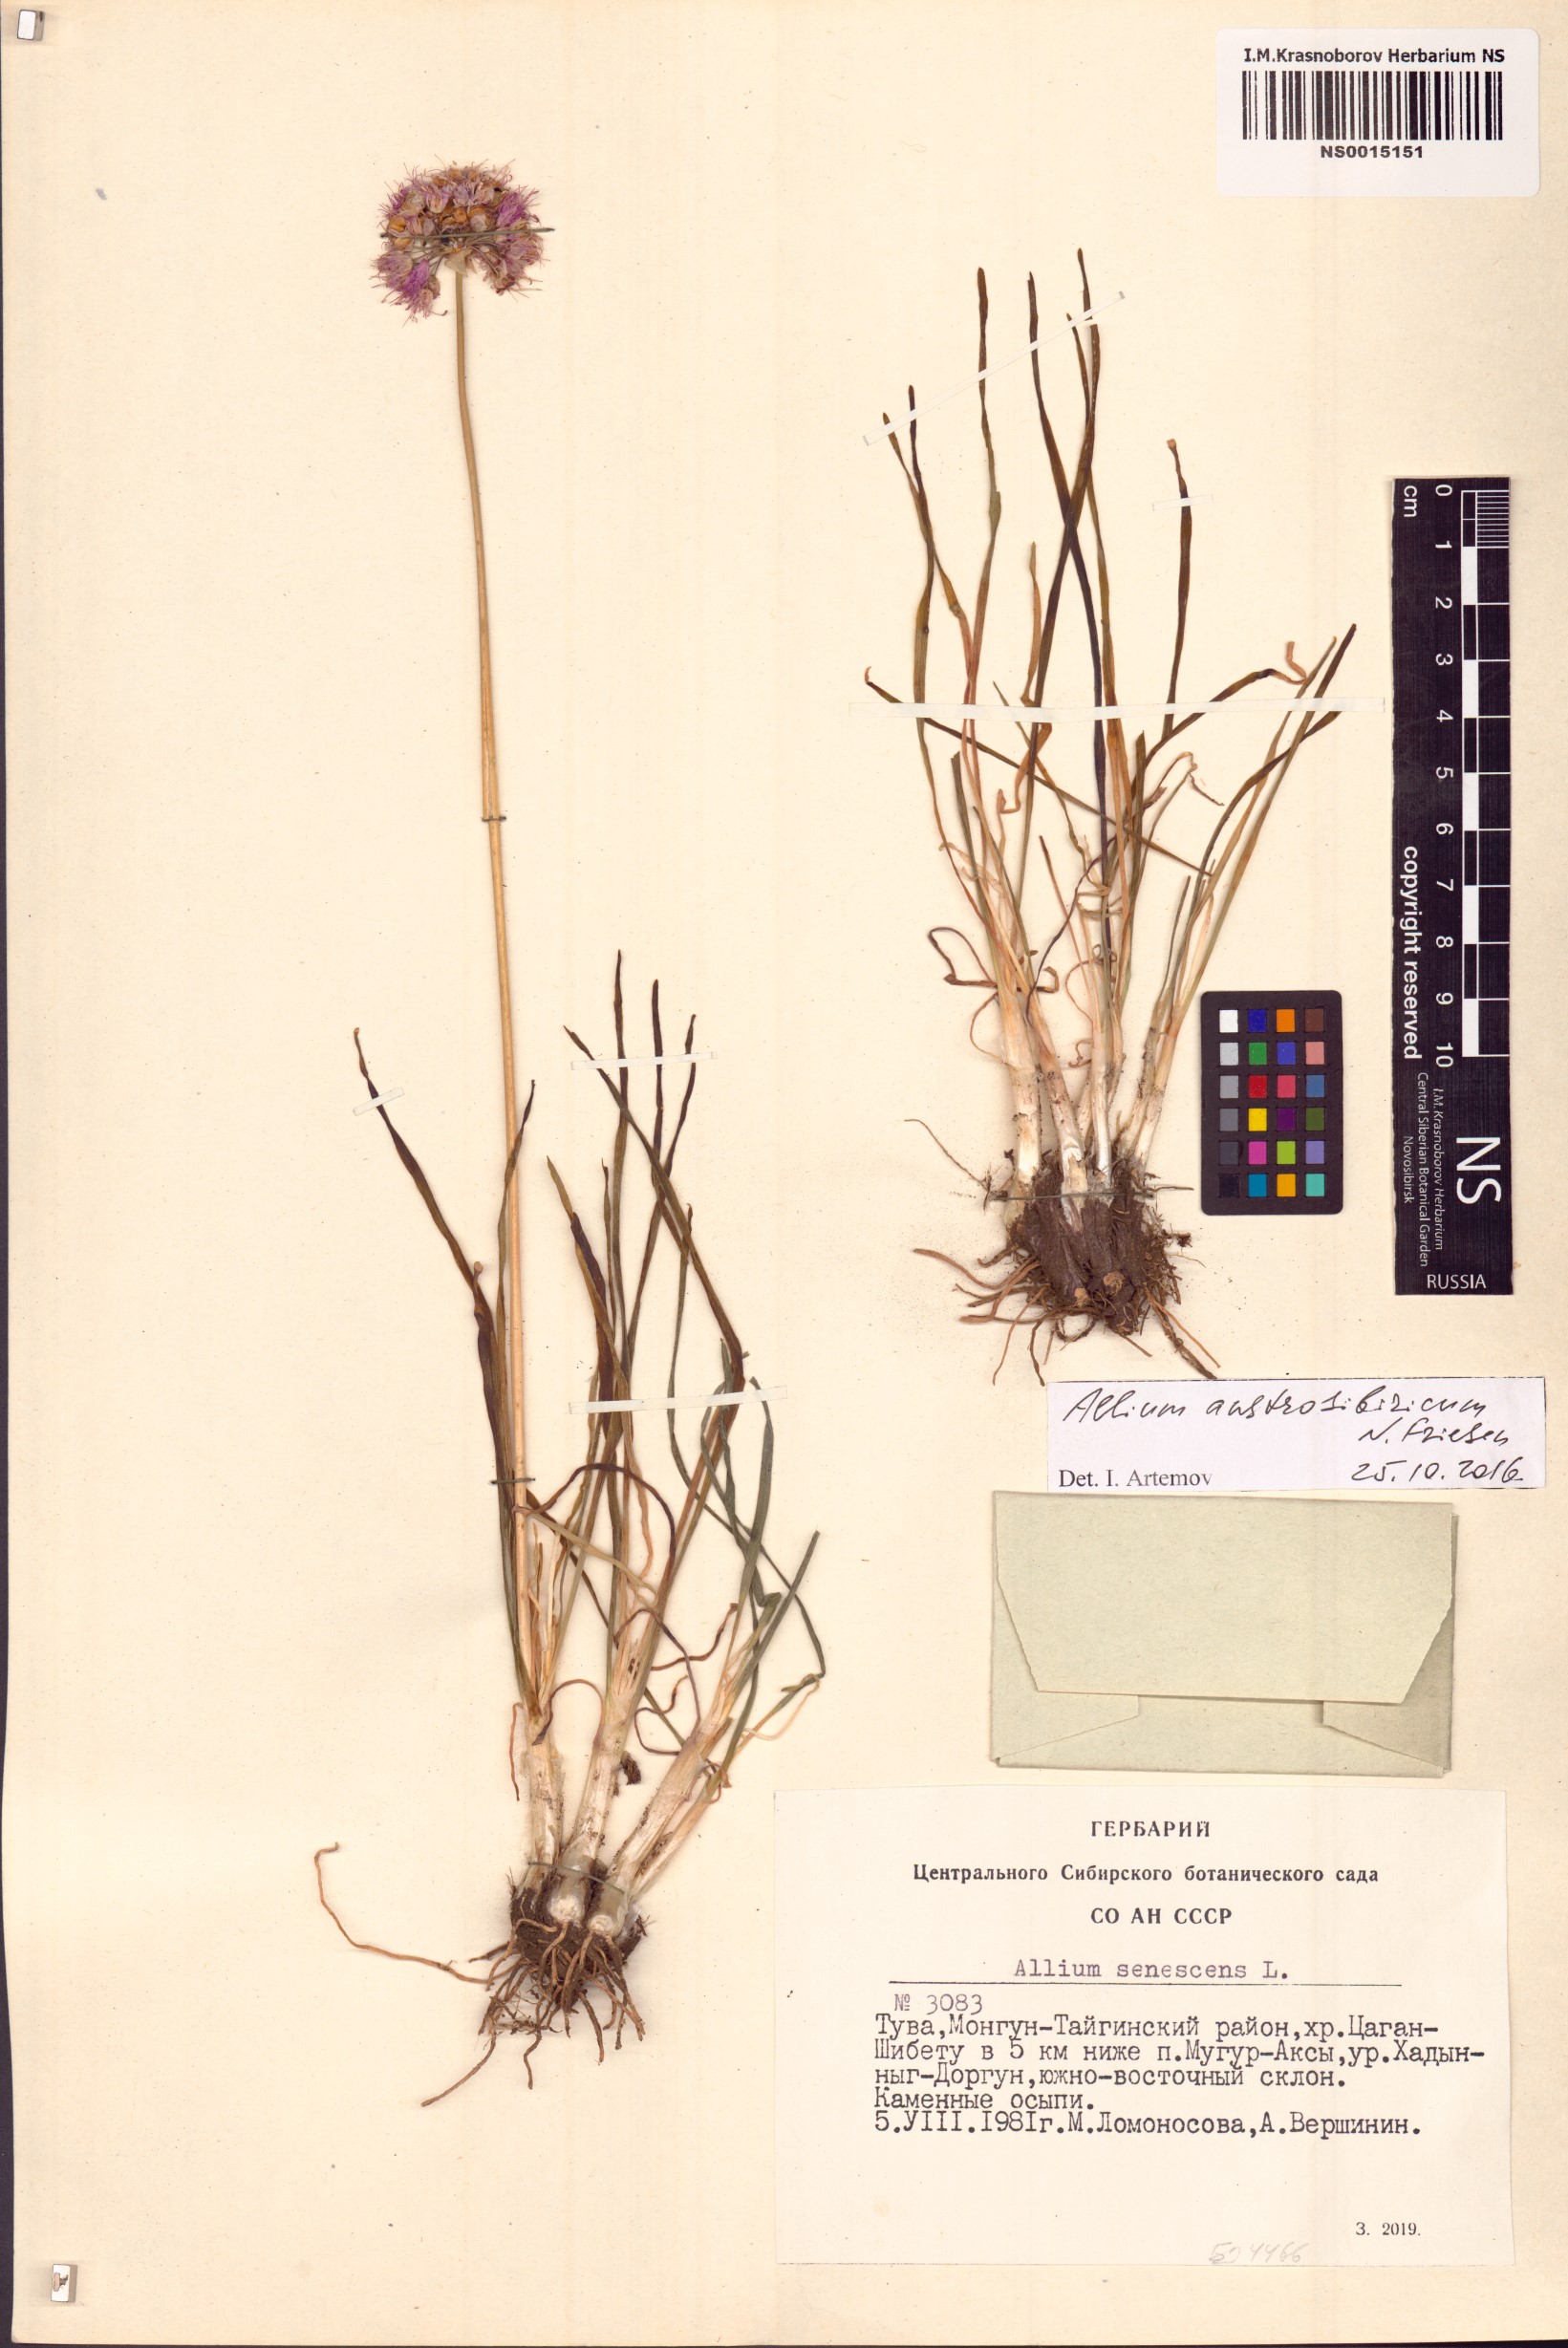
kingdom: Plantae
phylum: Tracheophyta
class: Liliopsida
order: Asparagales
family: Amaryllidaceae
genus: Allium
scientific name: Allium austrosibiricum
